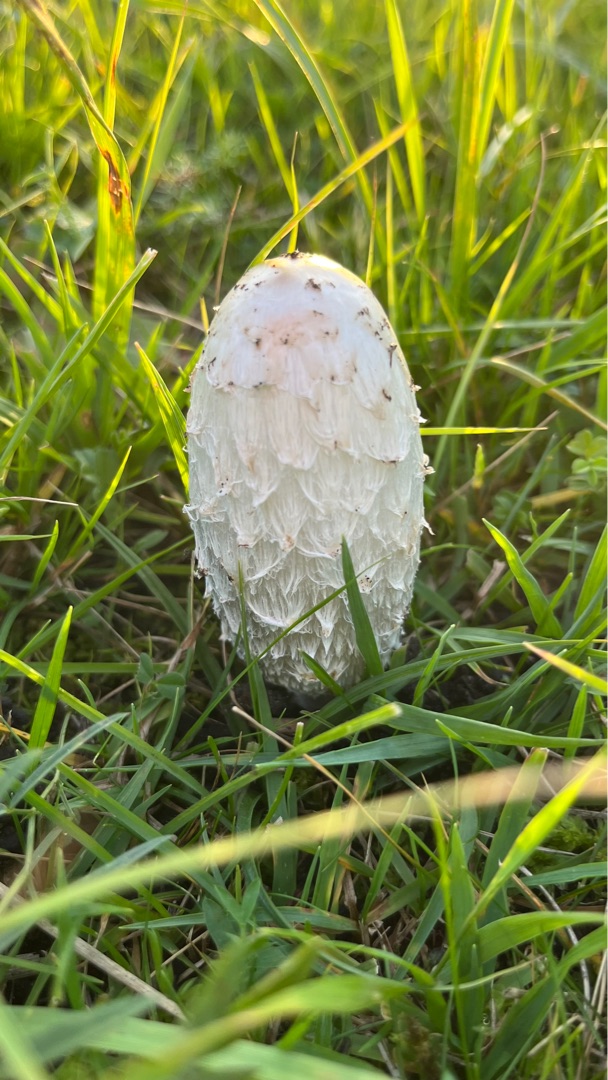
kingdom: Fungi
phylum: Basidiomycota
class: Agaricomycetes
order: Agaricales
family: Agaricaceae
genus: Coprinus
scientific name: Coprinus comatus
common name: Stor parykhat
